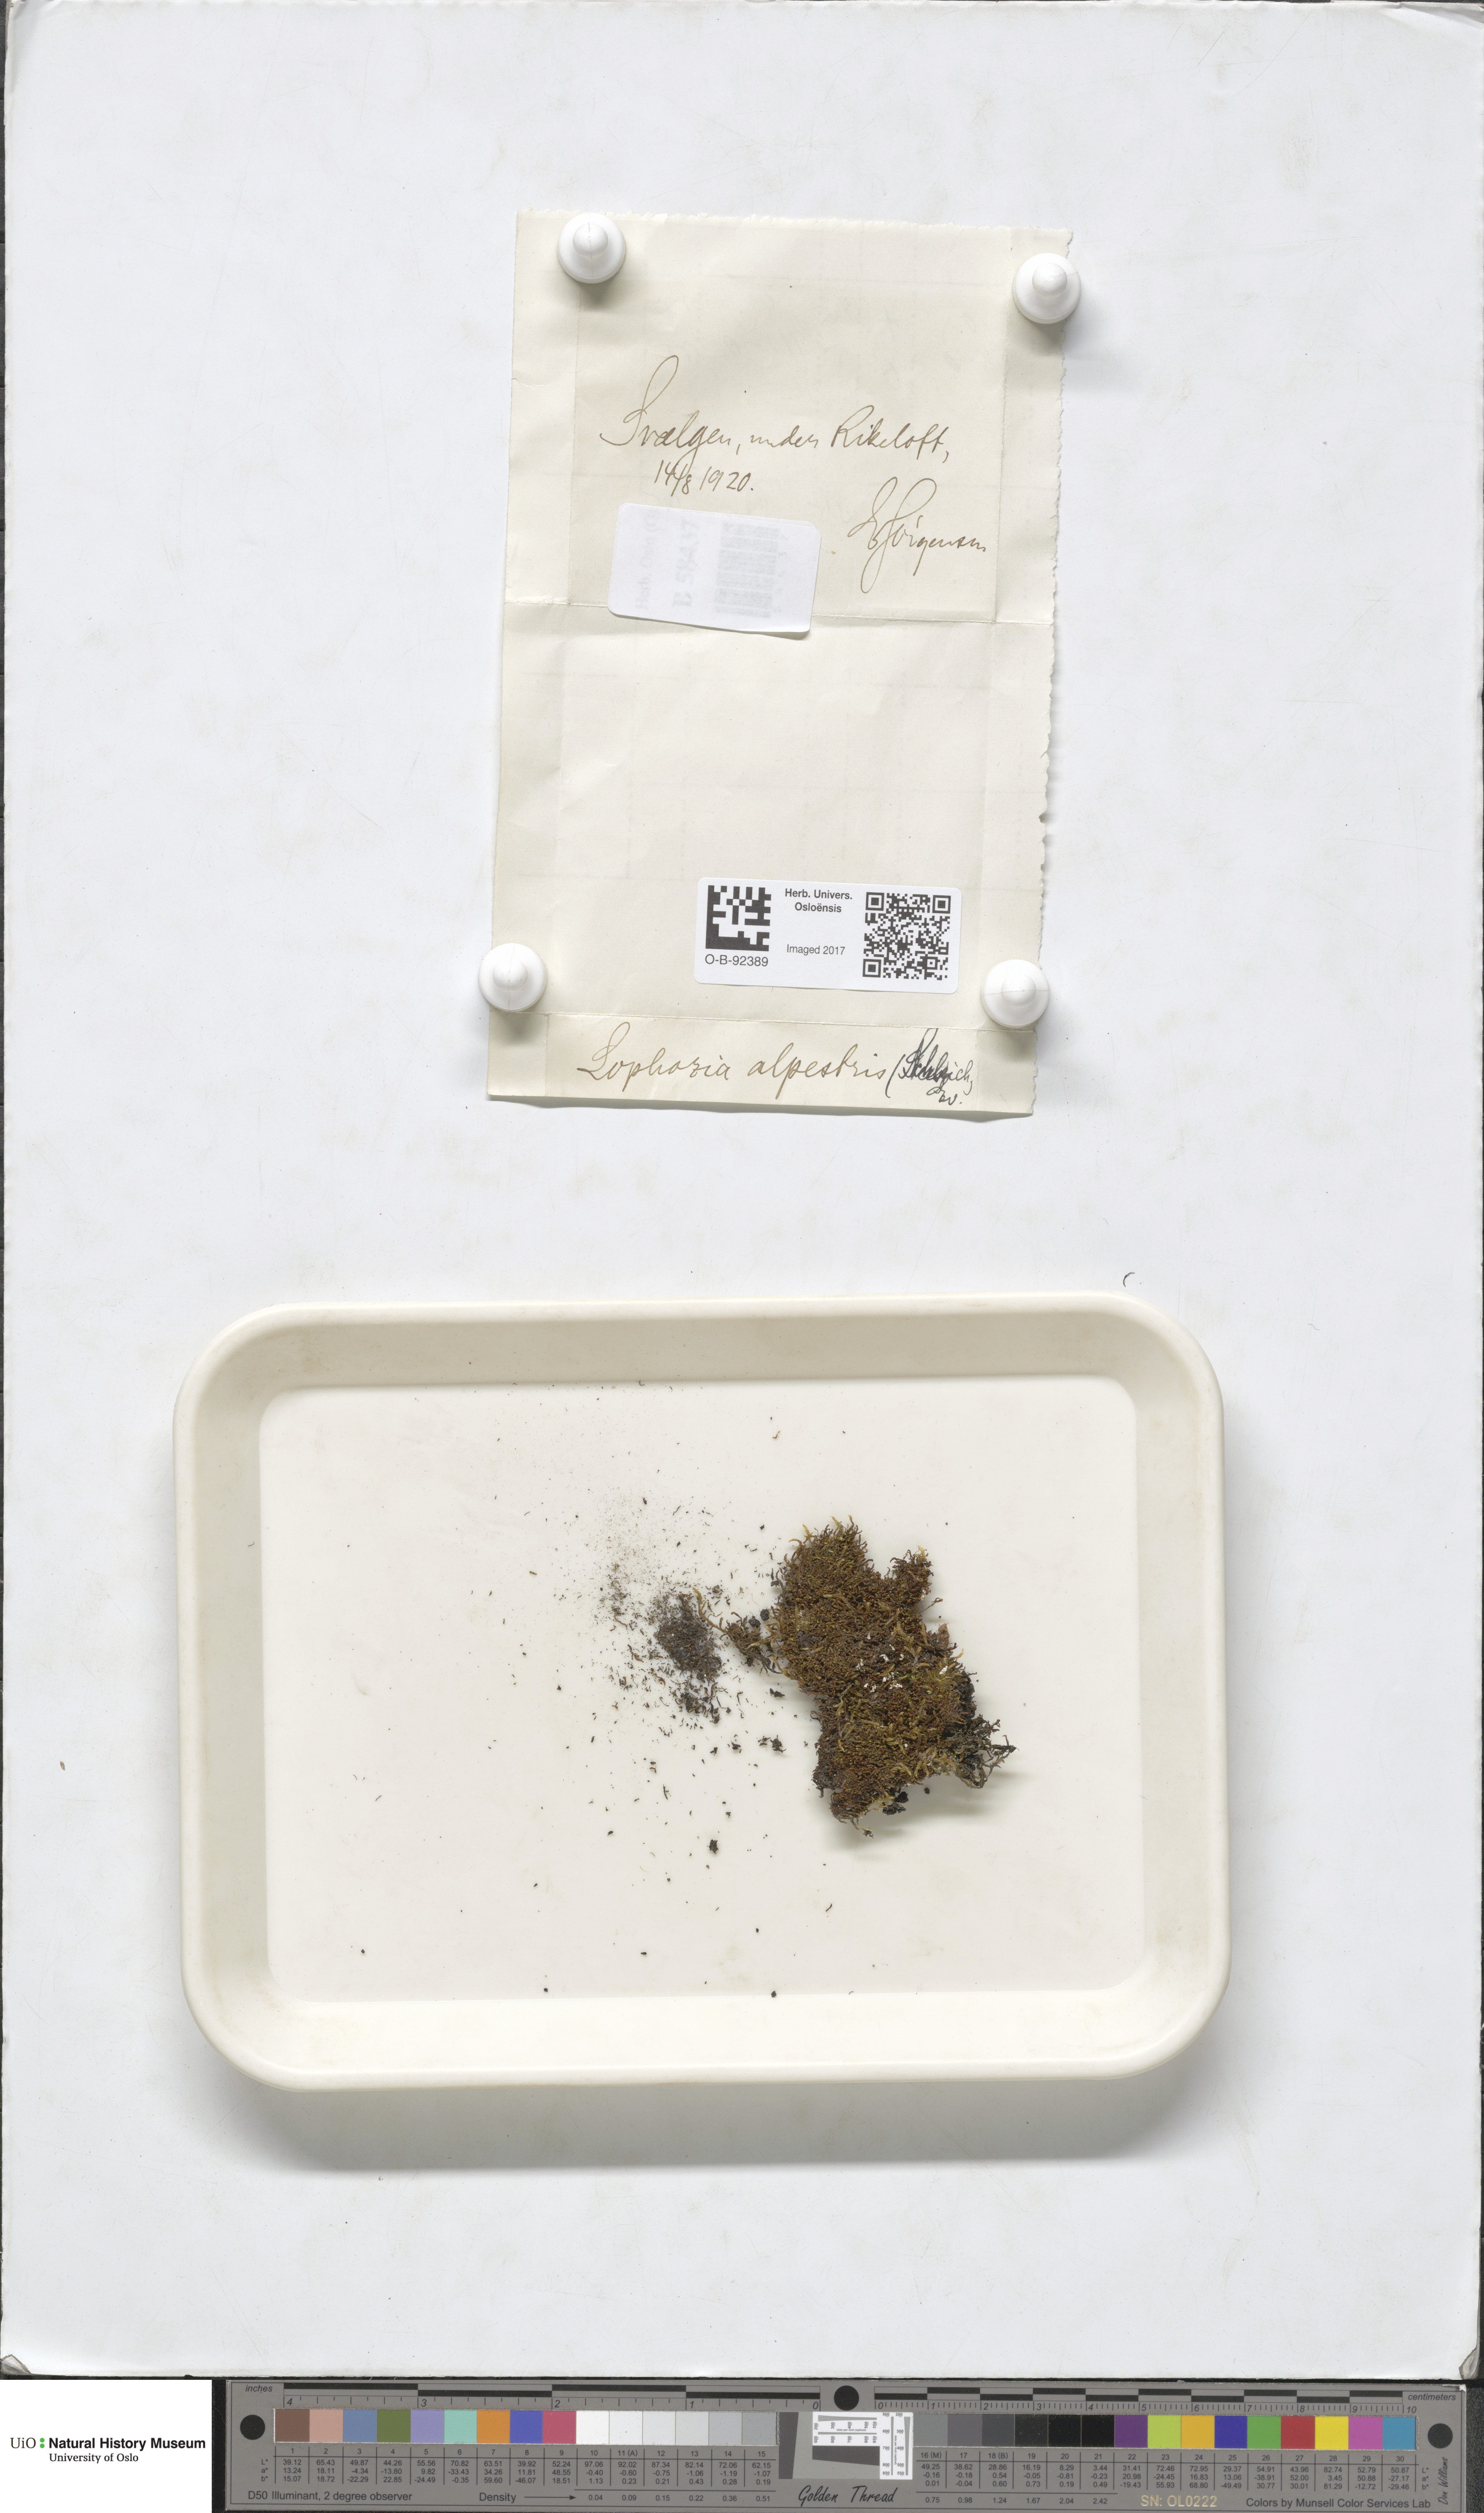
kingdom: Plantae
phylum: Marchantiophyta
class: Jungermanniopsida
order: Jungermanniales
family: Anastrophyllaceae
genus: Barbilophozia
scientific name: Barbilophozia sudetica
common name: Hill notchwort
